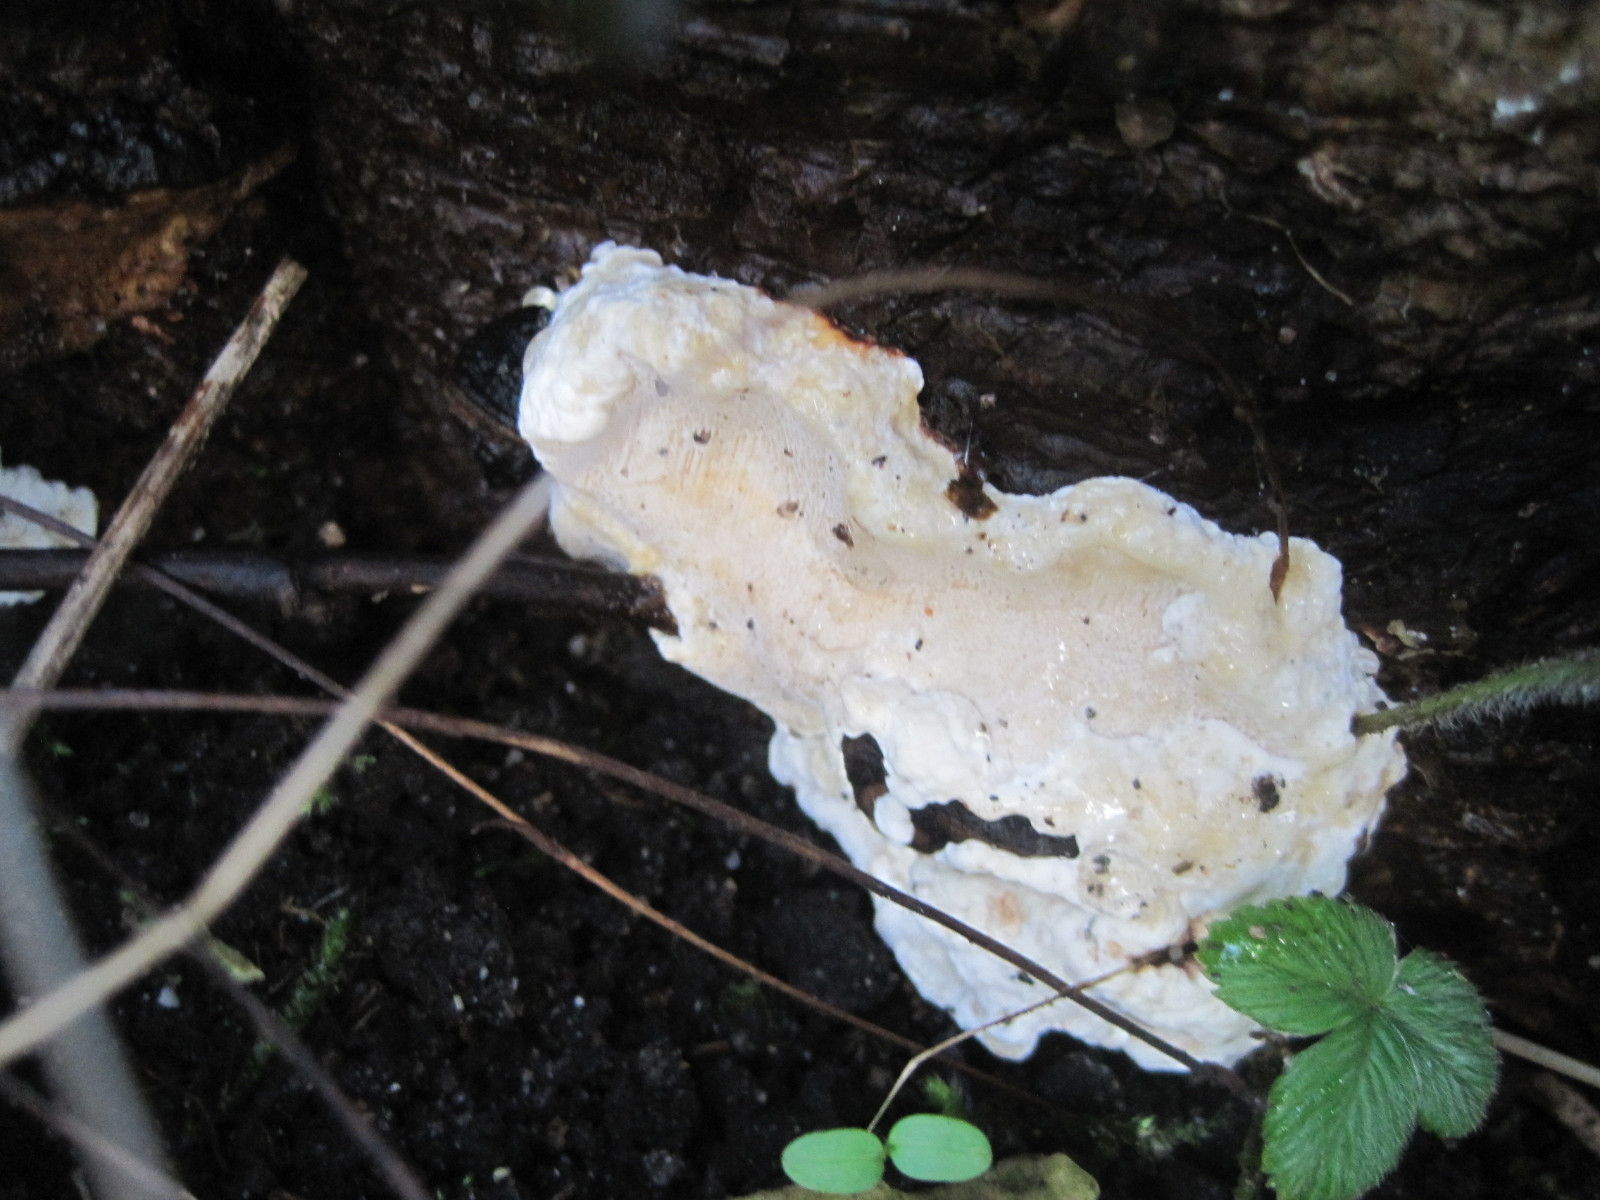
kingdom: Fungi
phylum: Basidiomycota
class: Agaricomycetes
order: Russulales
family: Bondarzewiaceae
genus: Heterobasidion
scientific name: Heterobasidion annosum
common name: almindelig rodfordærver
